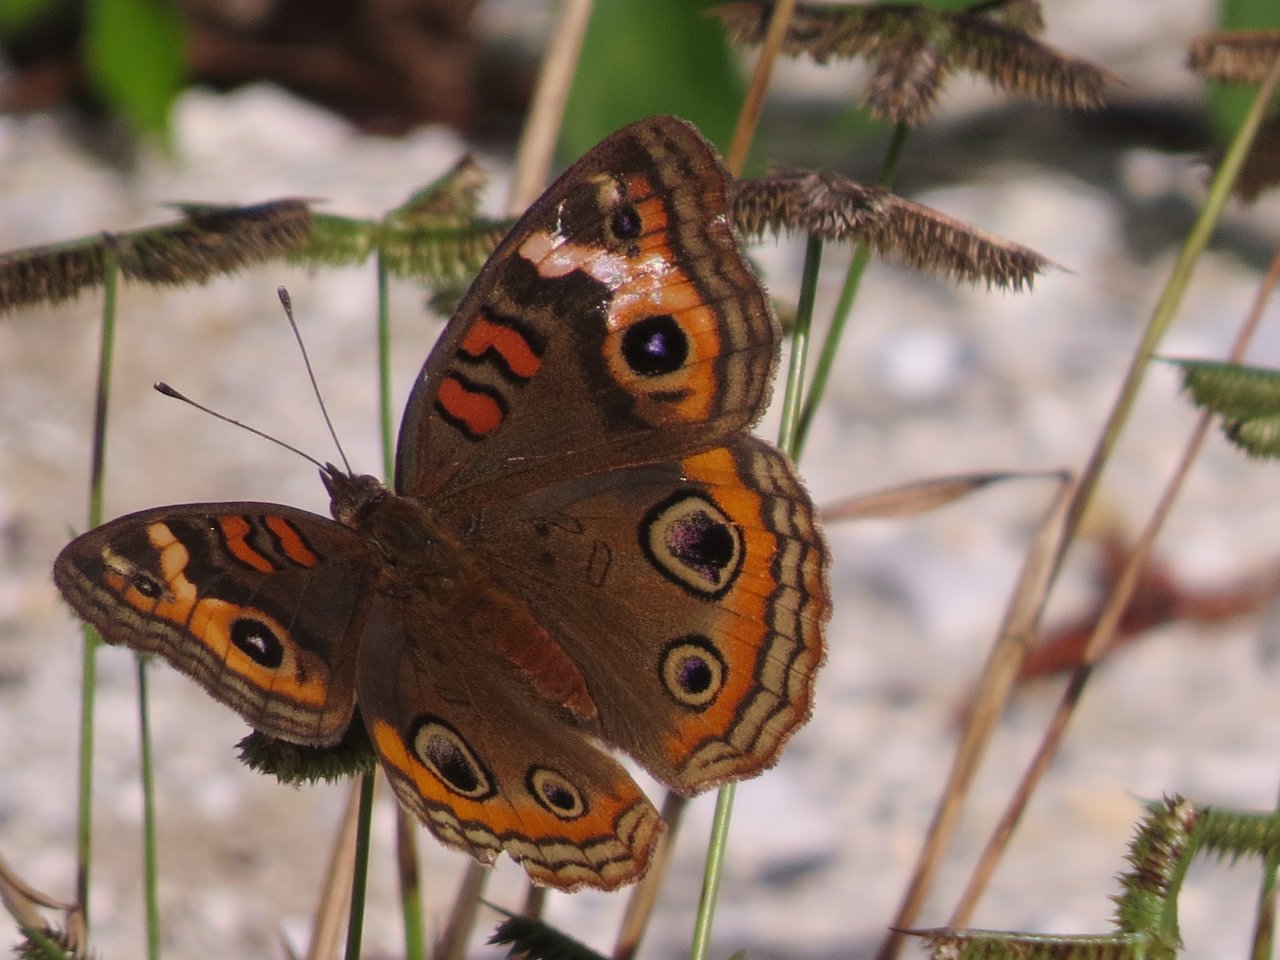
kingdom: Animalia
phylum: Arthropoda
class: Insecta
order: Lepidoptera
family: Nymphalidae
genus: Junonia
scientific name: Junonia evarete
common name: Mangrove Buckeye
